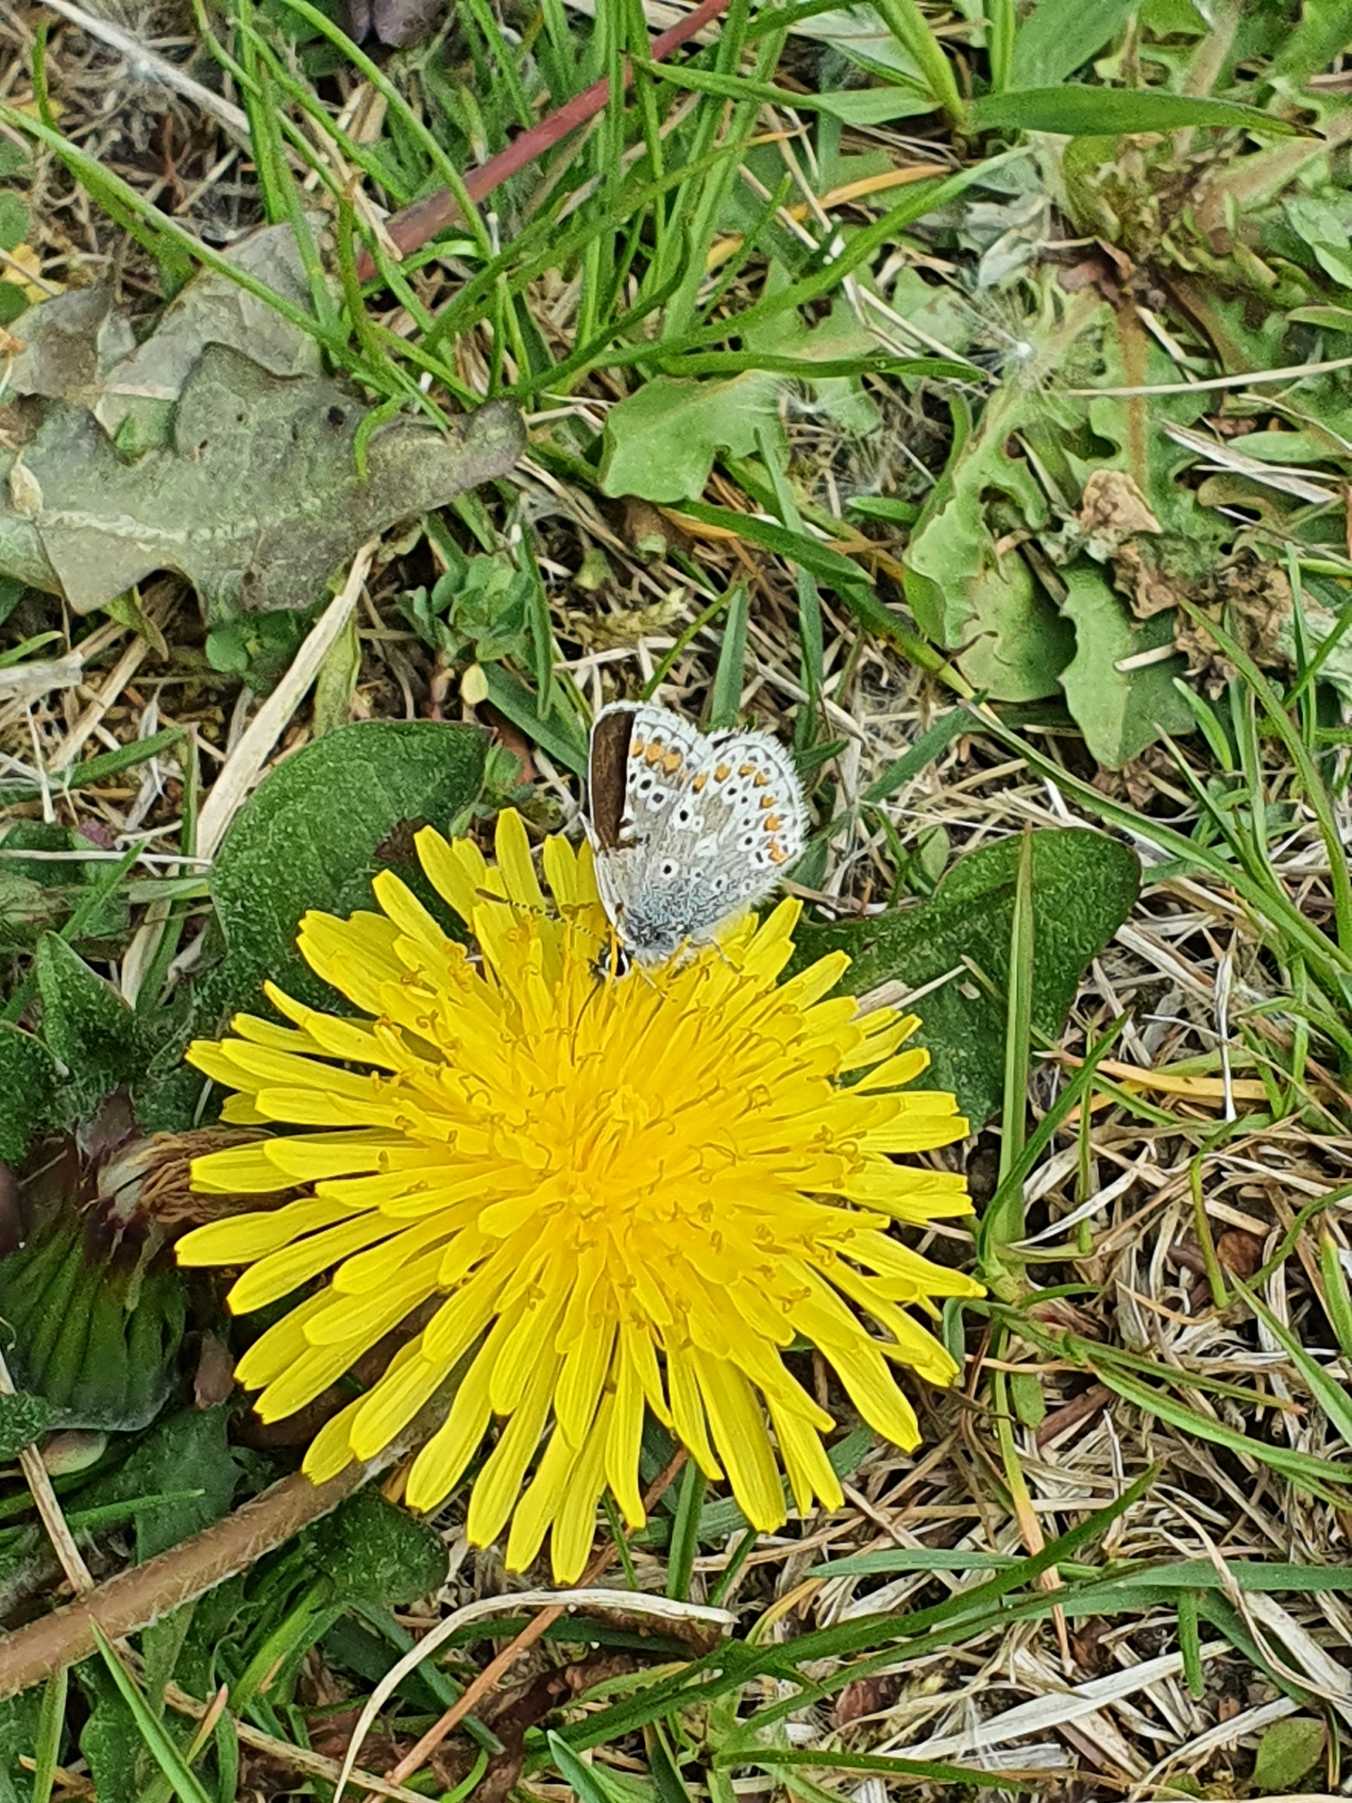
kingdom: Animalia
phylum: Arthropoda
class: Insecta
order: Lepidoptera
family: Lycaenidae
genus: Aricia
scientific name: Aricia agestis
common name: Rødplettet blåfugl
